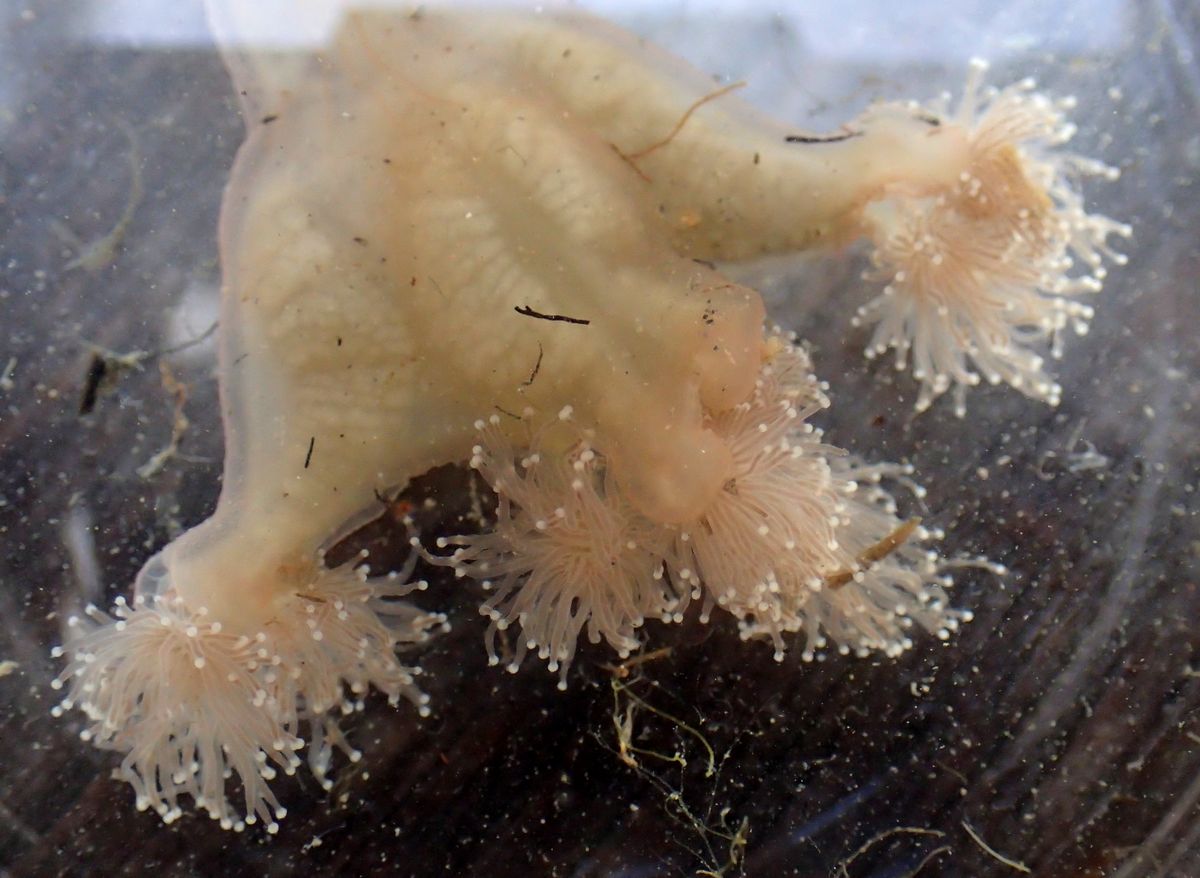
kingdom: Animalia
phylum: Cnidaria
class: Staurozoa
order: Stauromedusae
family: Lucernariidae
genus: Lucernaria
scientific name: Lucernaria quadricornis
